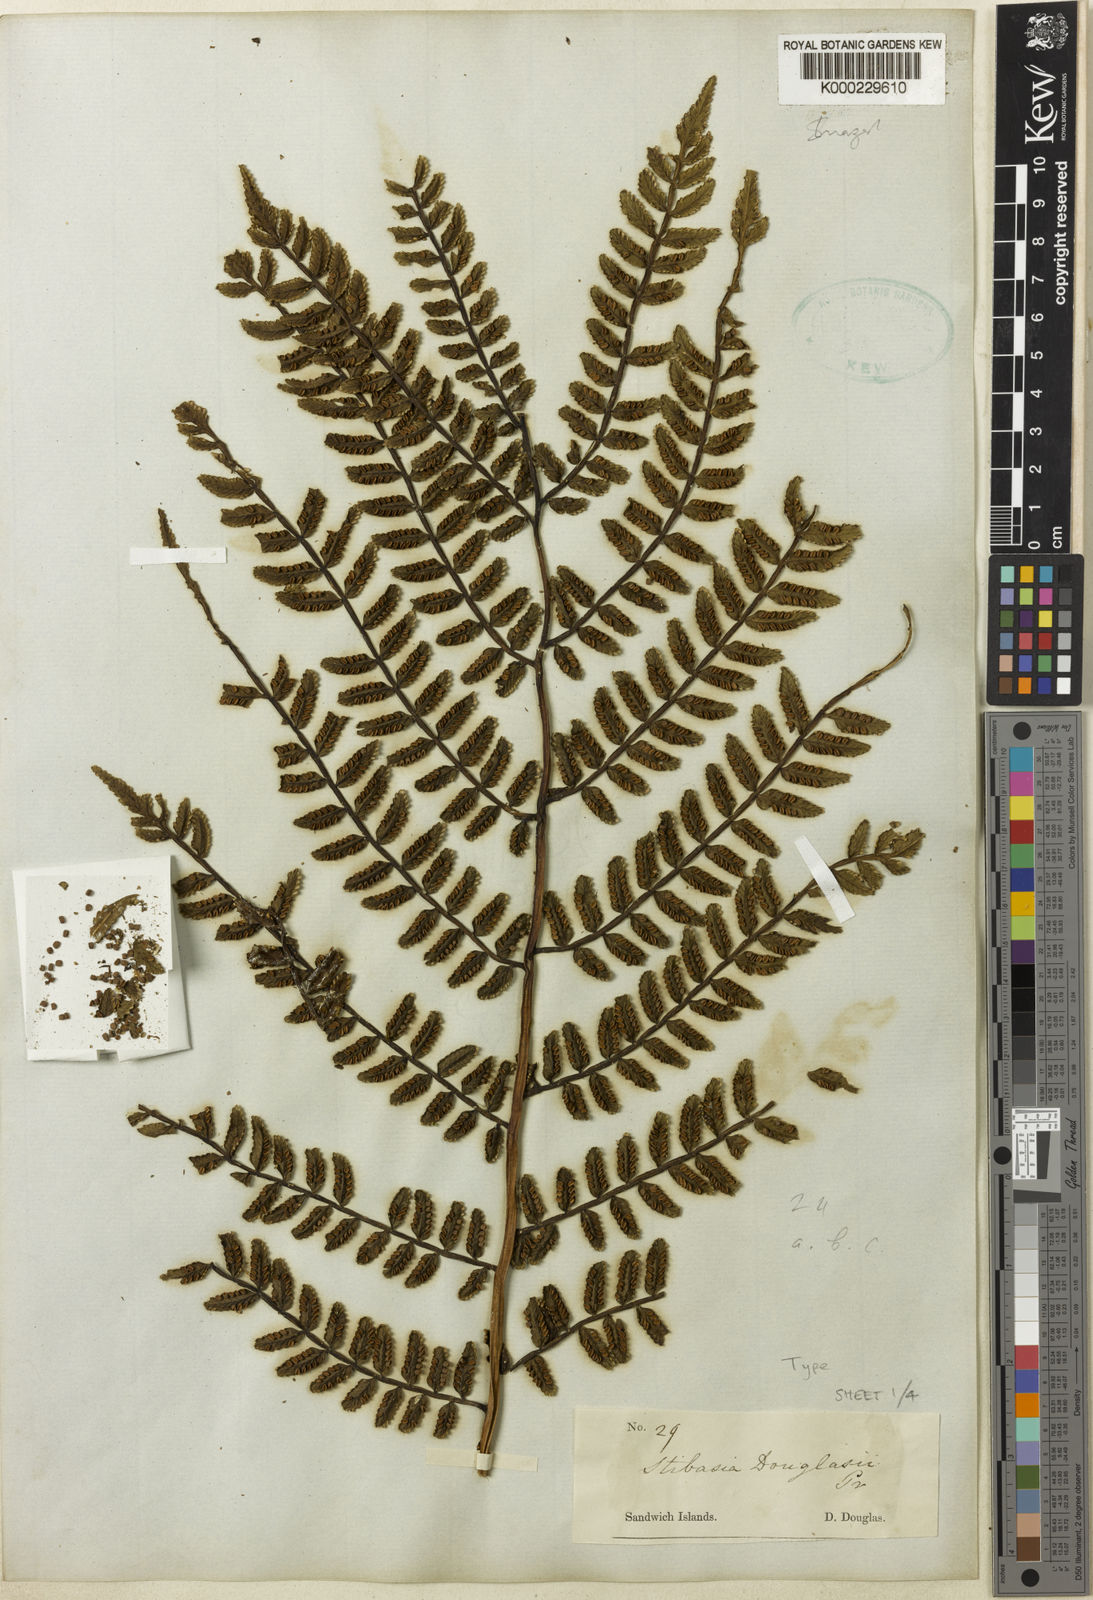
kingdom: Plantae
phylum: Tracheophyta
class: Polypodiopsida
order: Marattiales
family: Marattiaceae
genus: Marattia
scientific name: Marattia douglasii
